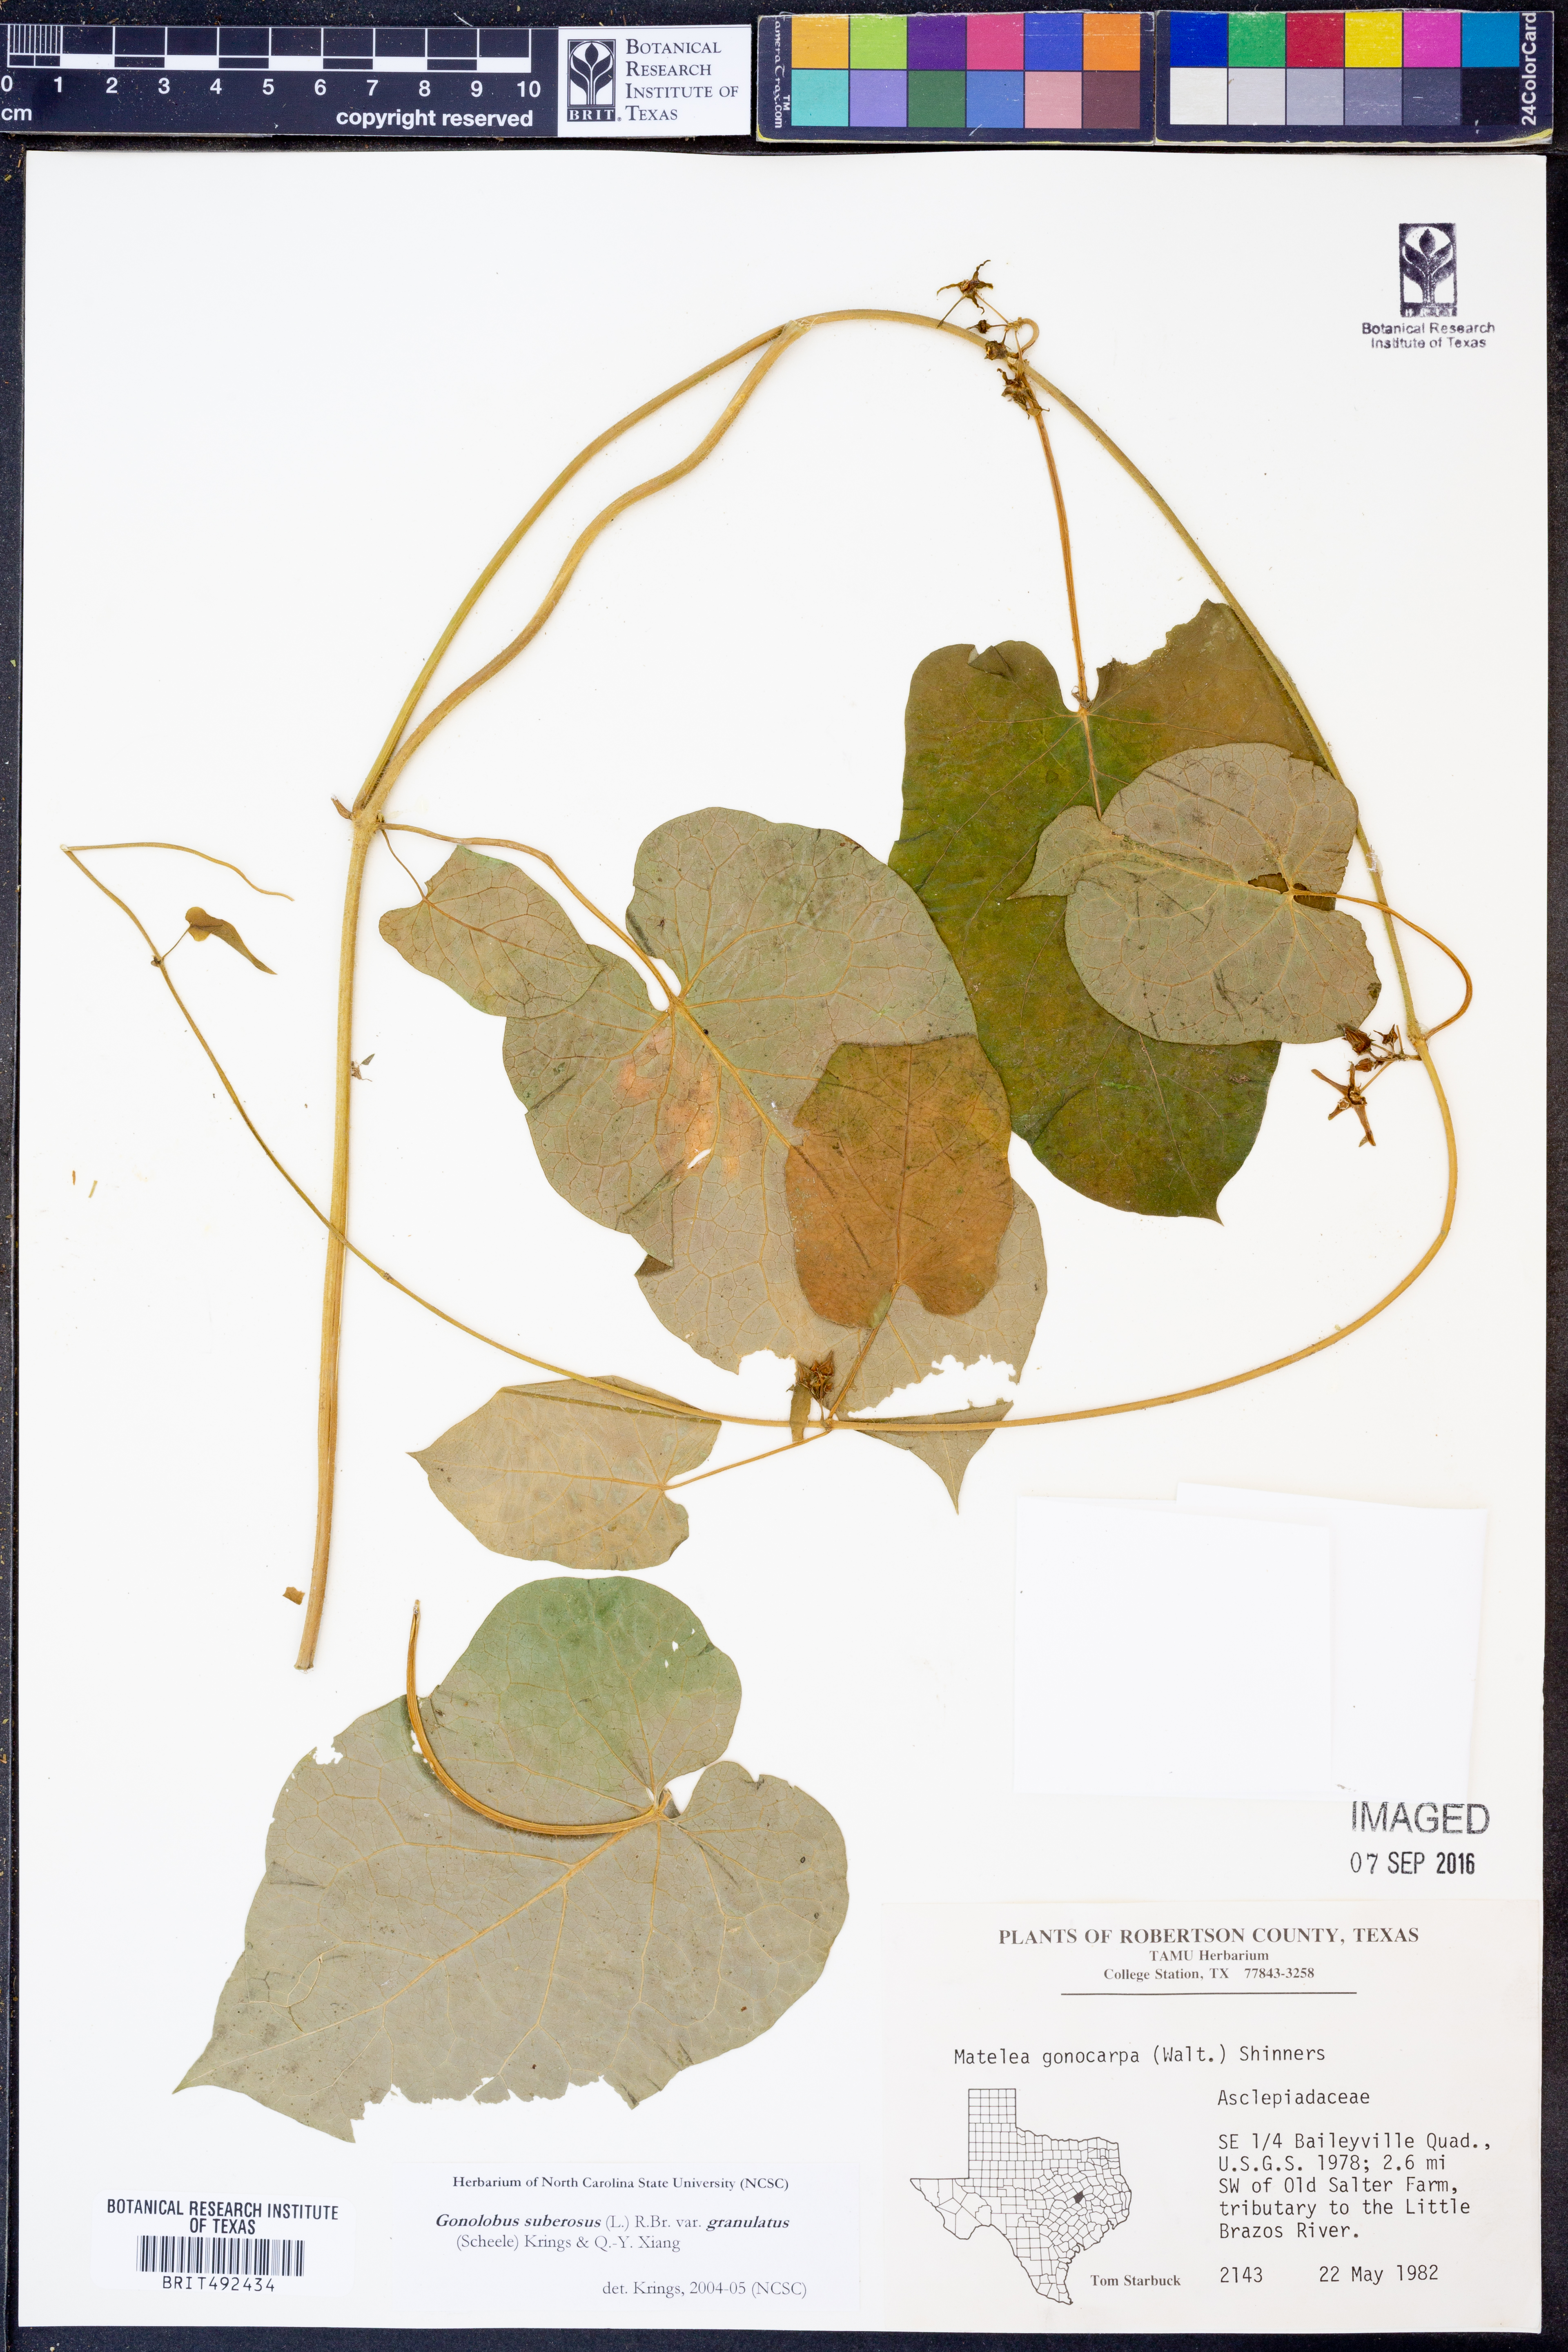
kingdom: Plantae
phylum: Tracheophyta
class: Magnoliopsida
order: Gentianales
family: Apocynaceae
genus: Gonolobus
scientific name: Gonolobus suberosus
